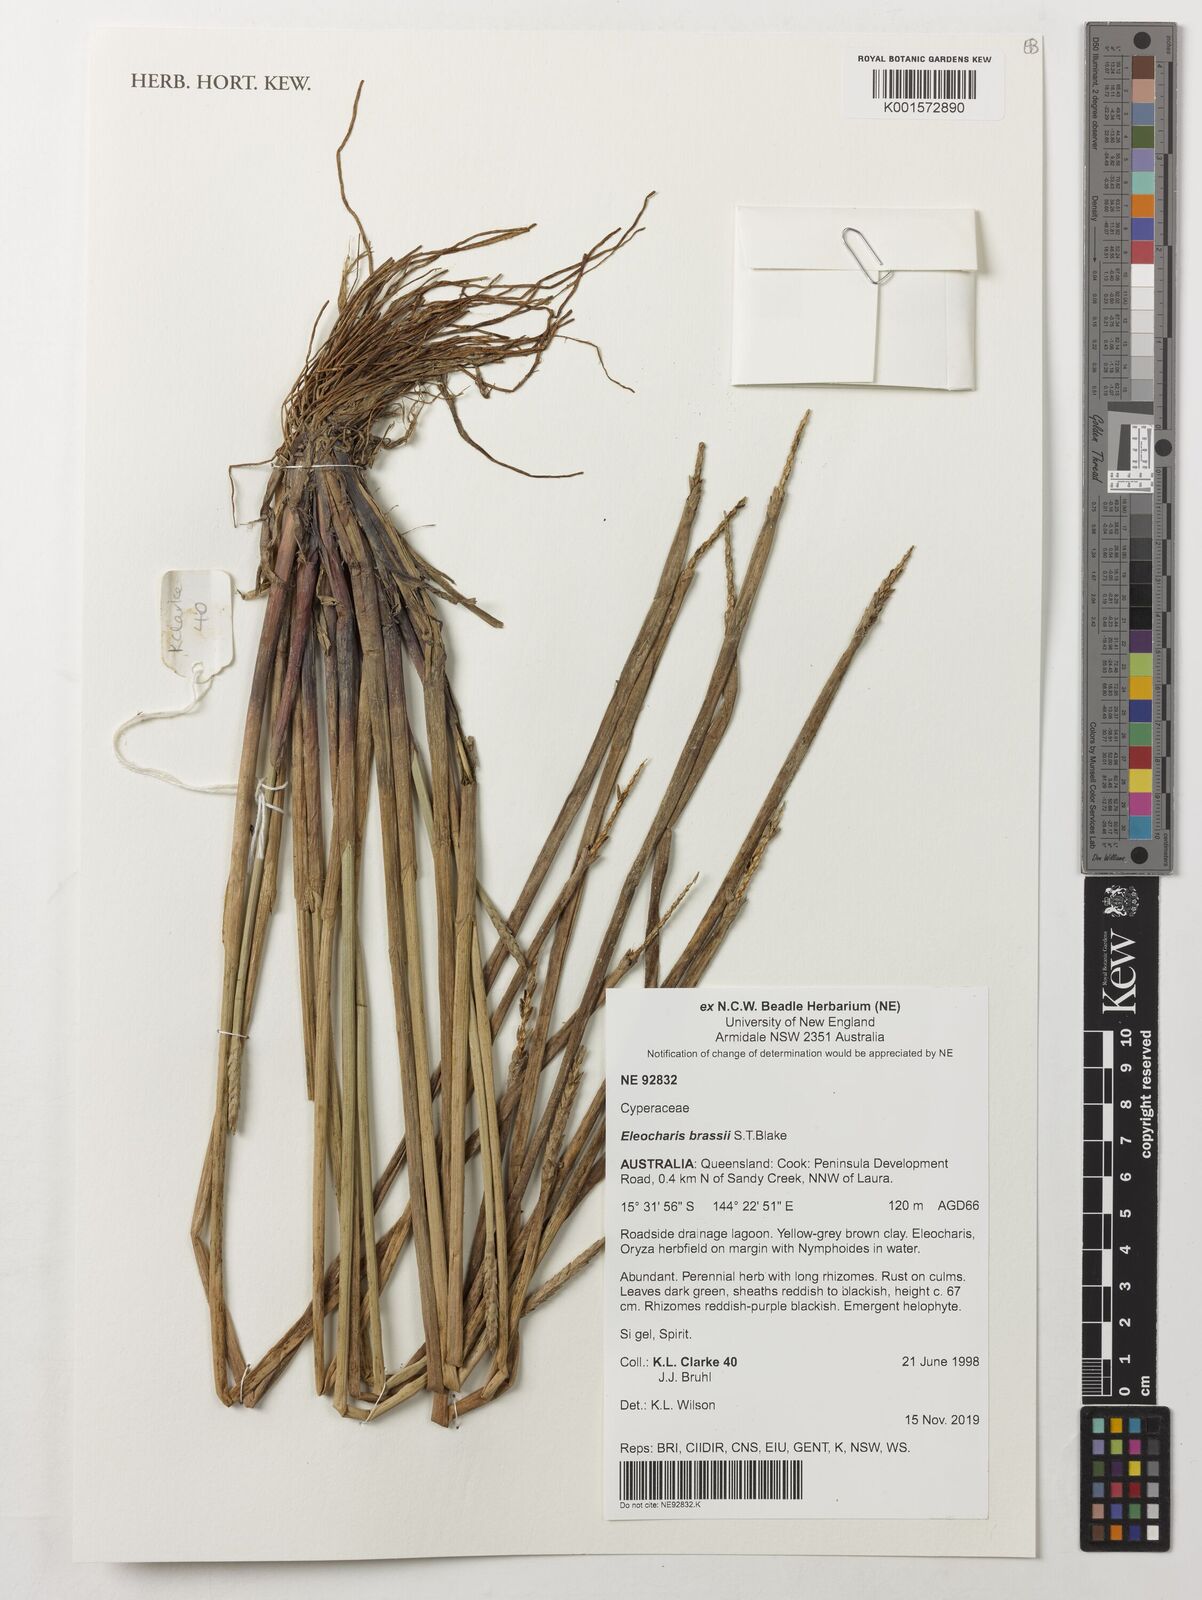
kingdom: Plantae
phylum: Tracheophyta
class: Liliopsida
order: Poales
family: Cyperaceae
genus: Eleocharis
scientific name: Eleocharis brassii
